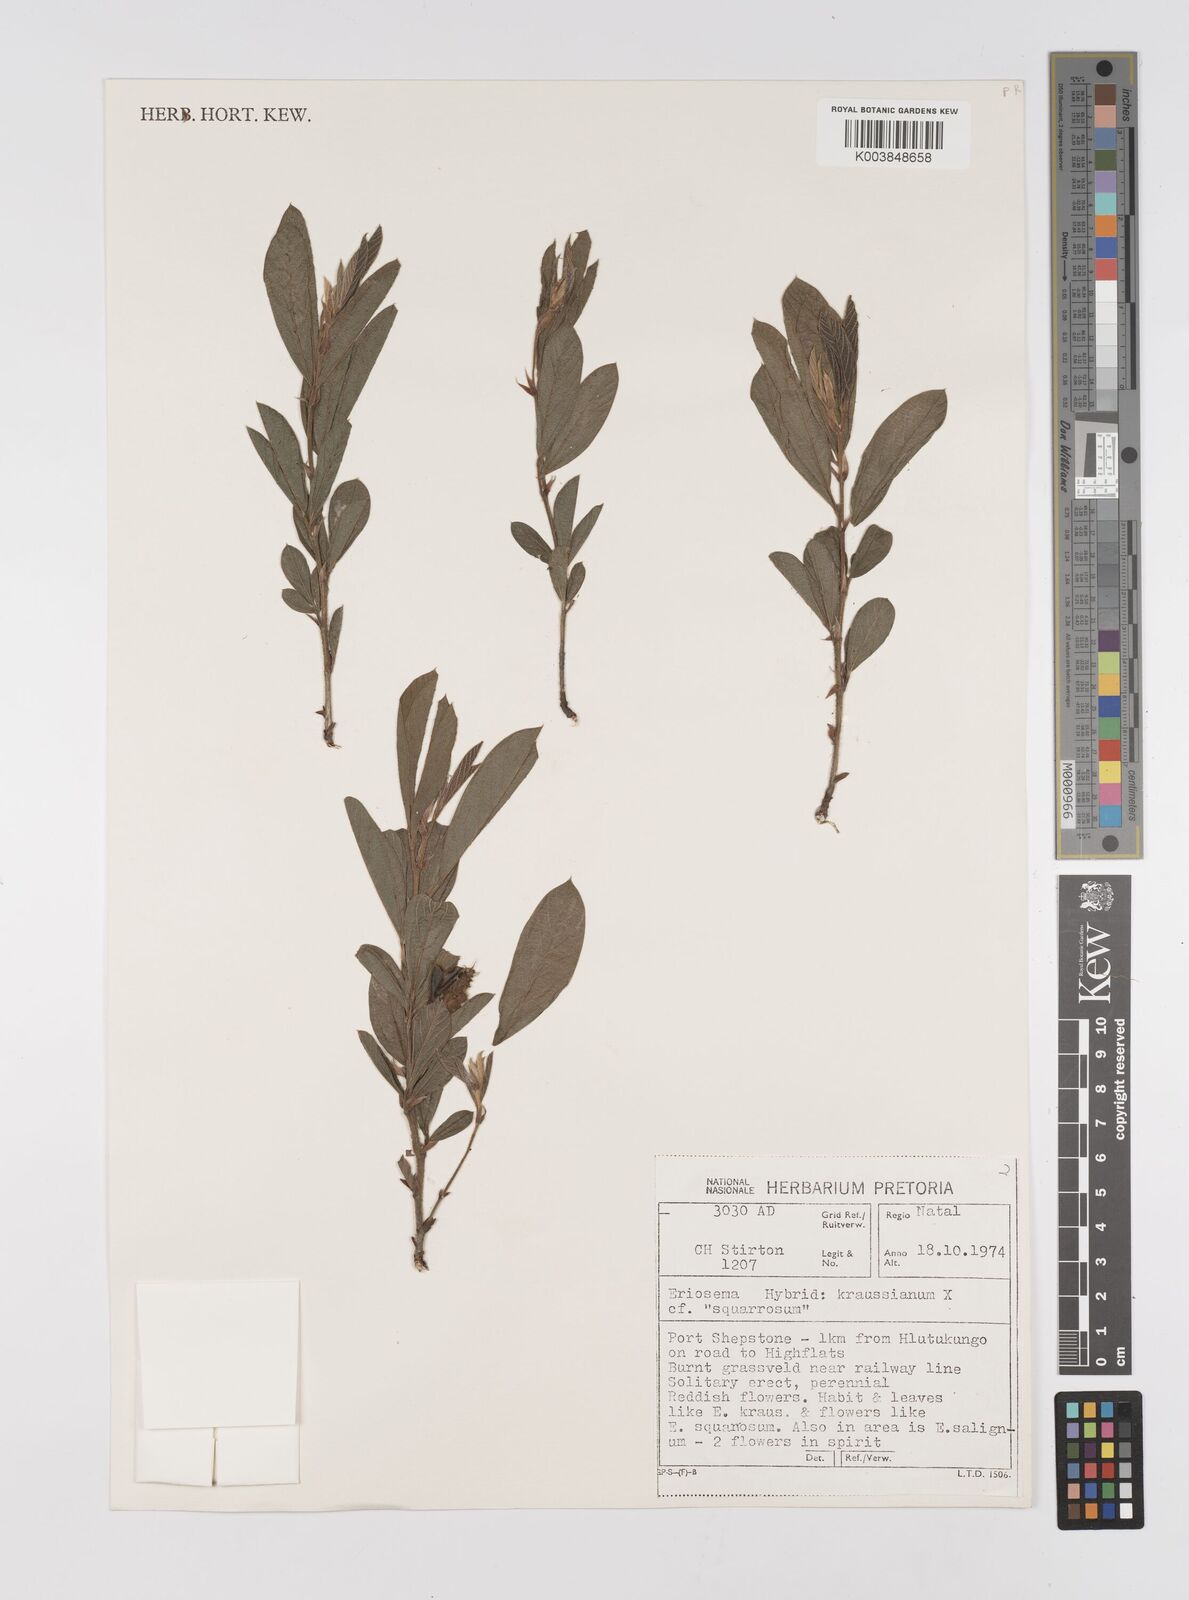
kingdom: Plantae
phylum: Tracheophyta
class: Magnoliopsida
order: Fabales
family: Fabaceae
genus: Eriosema
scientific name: Eriosema kraussianum
